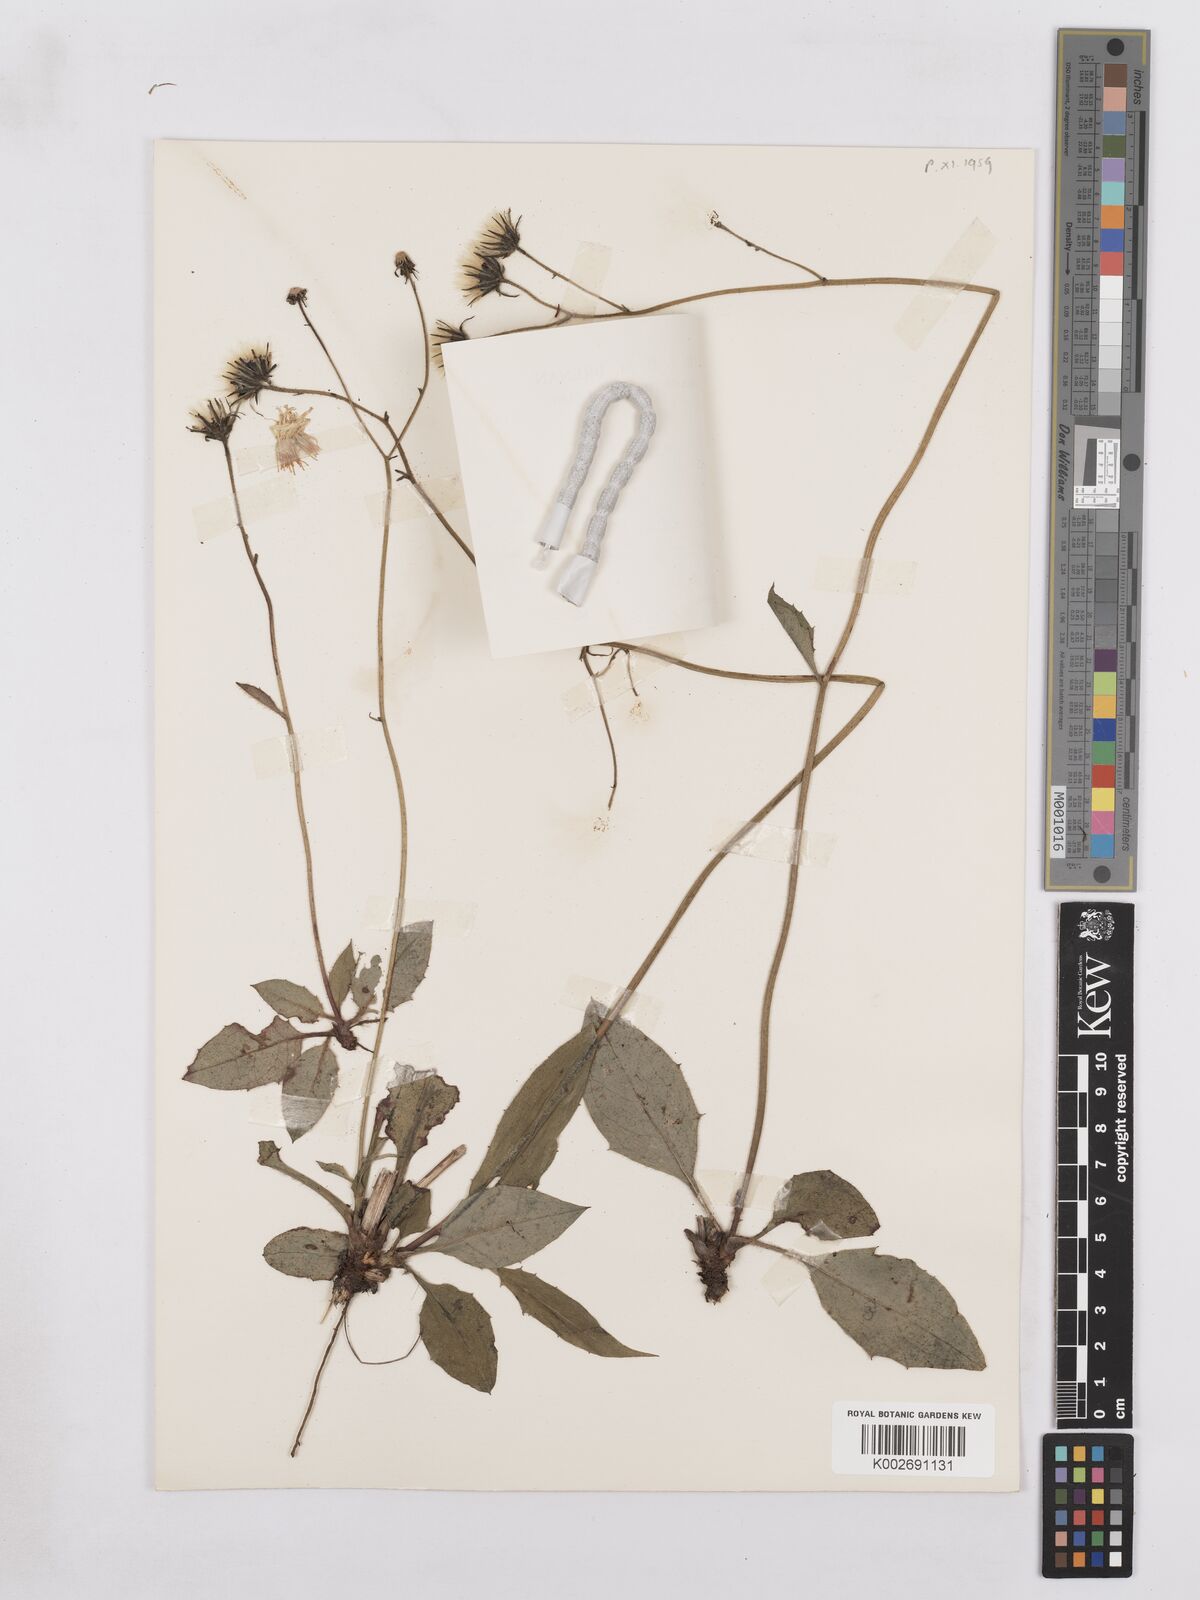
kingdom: Plantae
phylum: Tracheophyta
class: Magnoliopsida
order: Asterales
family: Asteraceae
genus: Hieracium
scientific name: Hieracium lachenalii
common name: Common hawkweed
